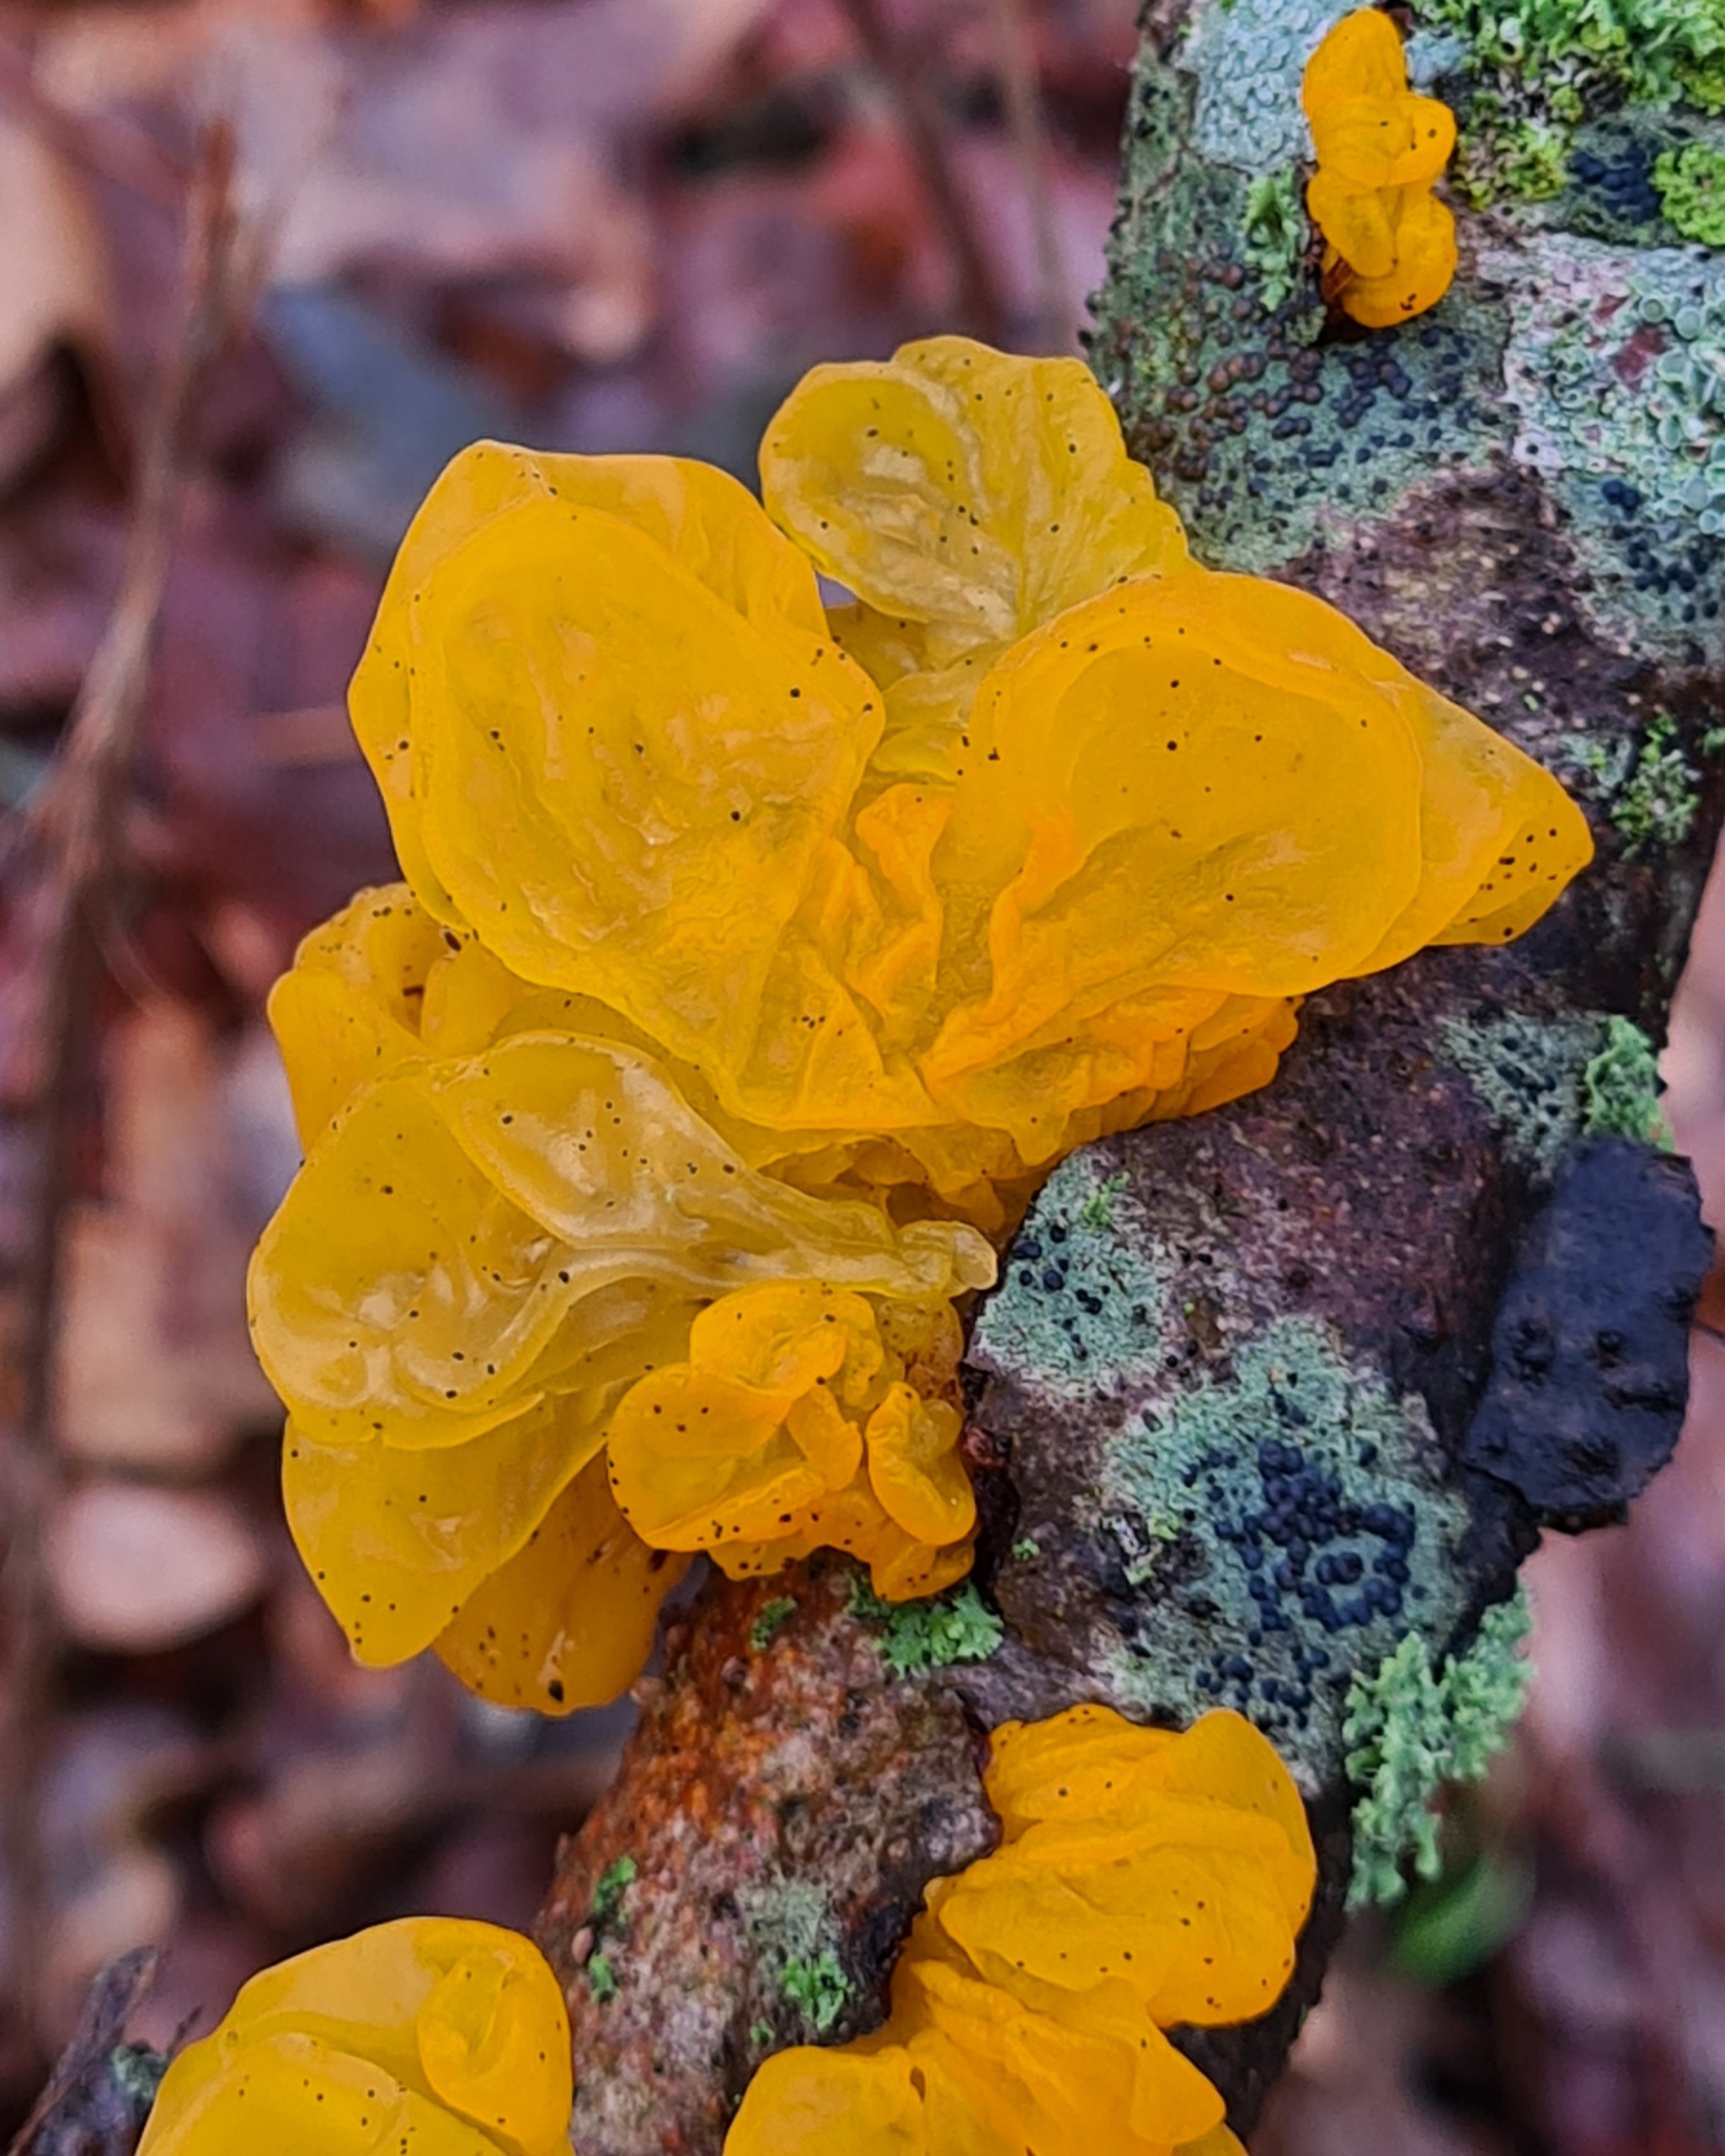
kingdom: Fungi
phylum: Basidiomycota
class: Tremellomycetes
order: Tremellales
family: Tremellaceae
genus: Tremella
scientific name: Tremella mesenterica
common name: Gul bævresvamp
